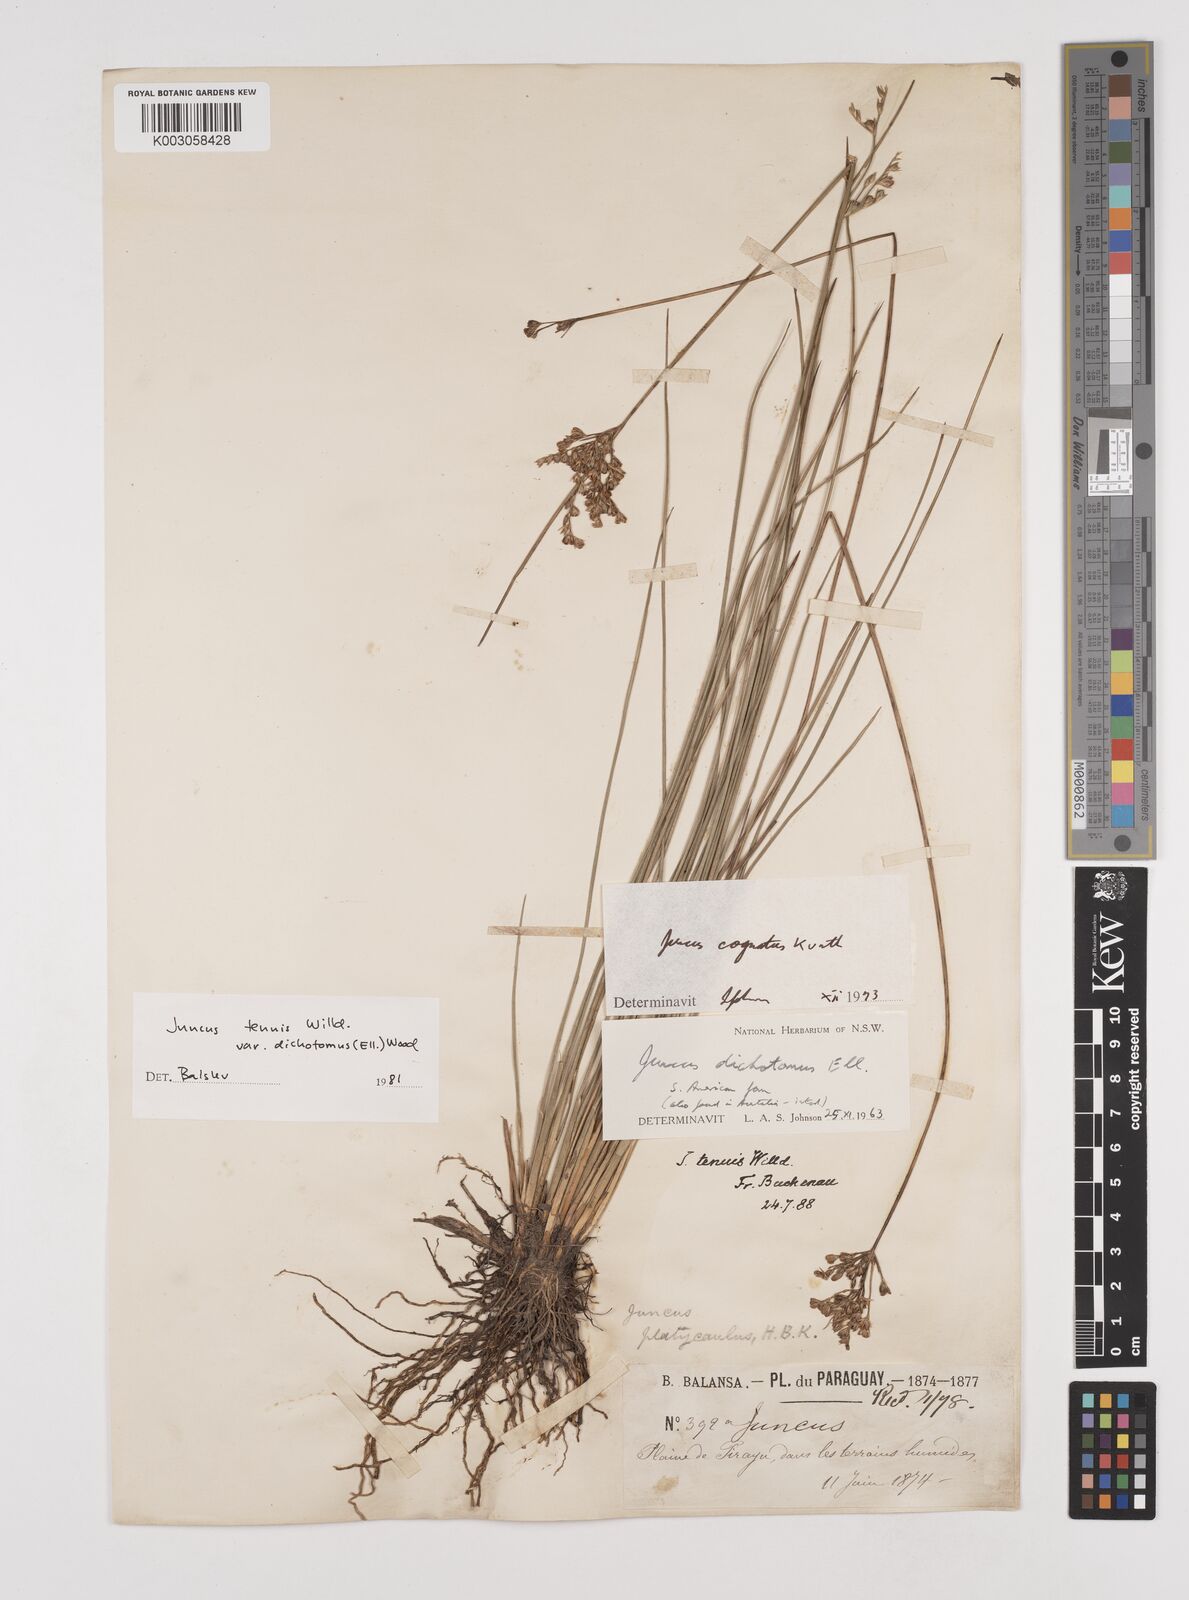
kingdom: Plantae
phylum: Tracheophyta
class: Liliopsida
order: Poales
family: Juncaceae
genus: Juncus
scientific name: Juncus capillaceus
